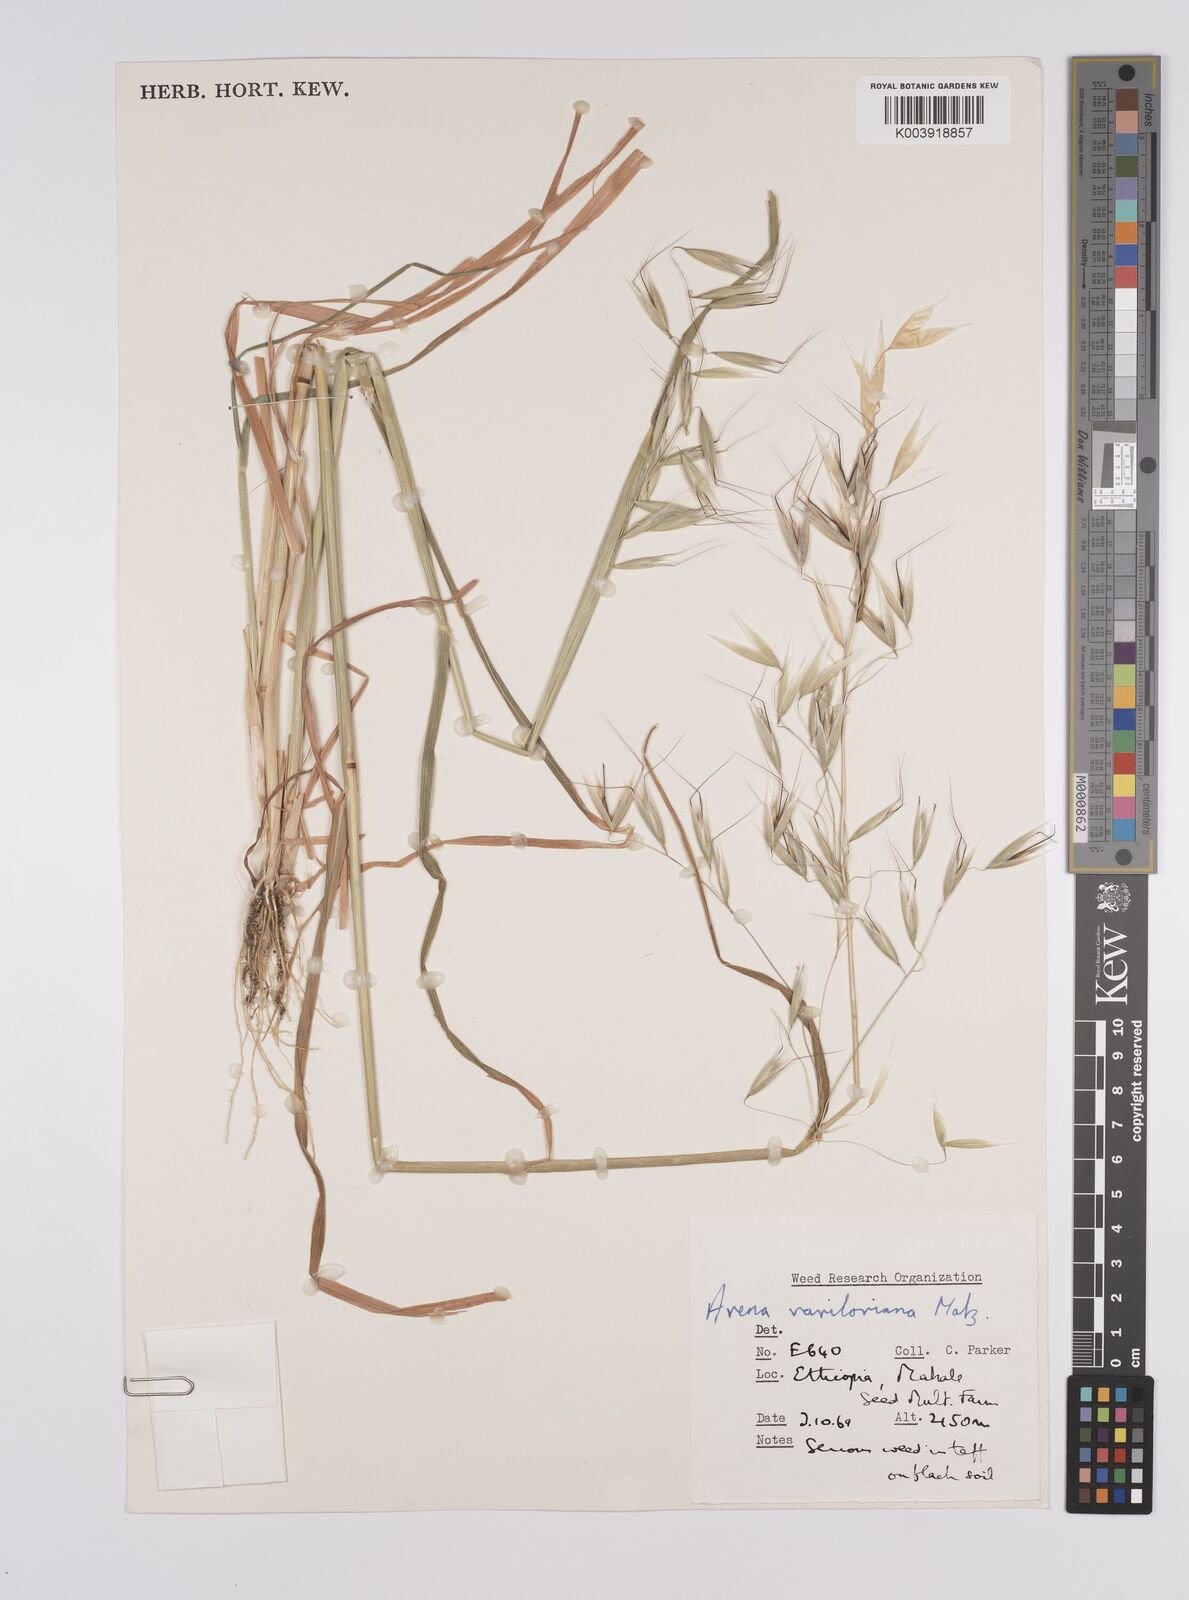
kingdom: Plantae
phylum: Tracheophyta
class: Liliopsida
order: Poales
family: Poaceae
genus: Avena
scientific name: Avena vaviloviana
